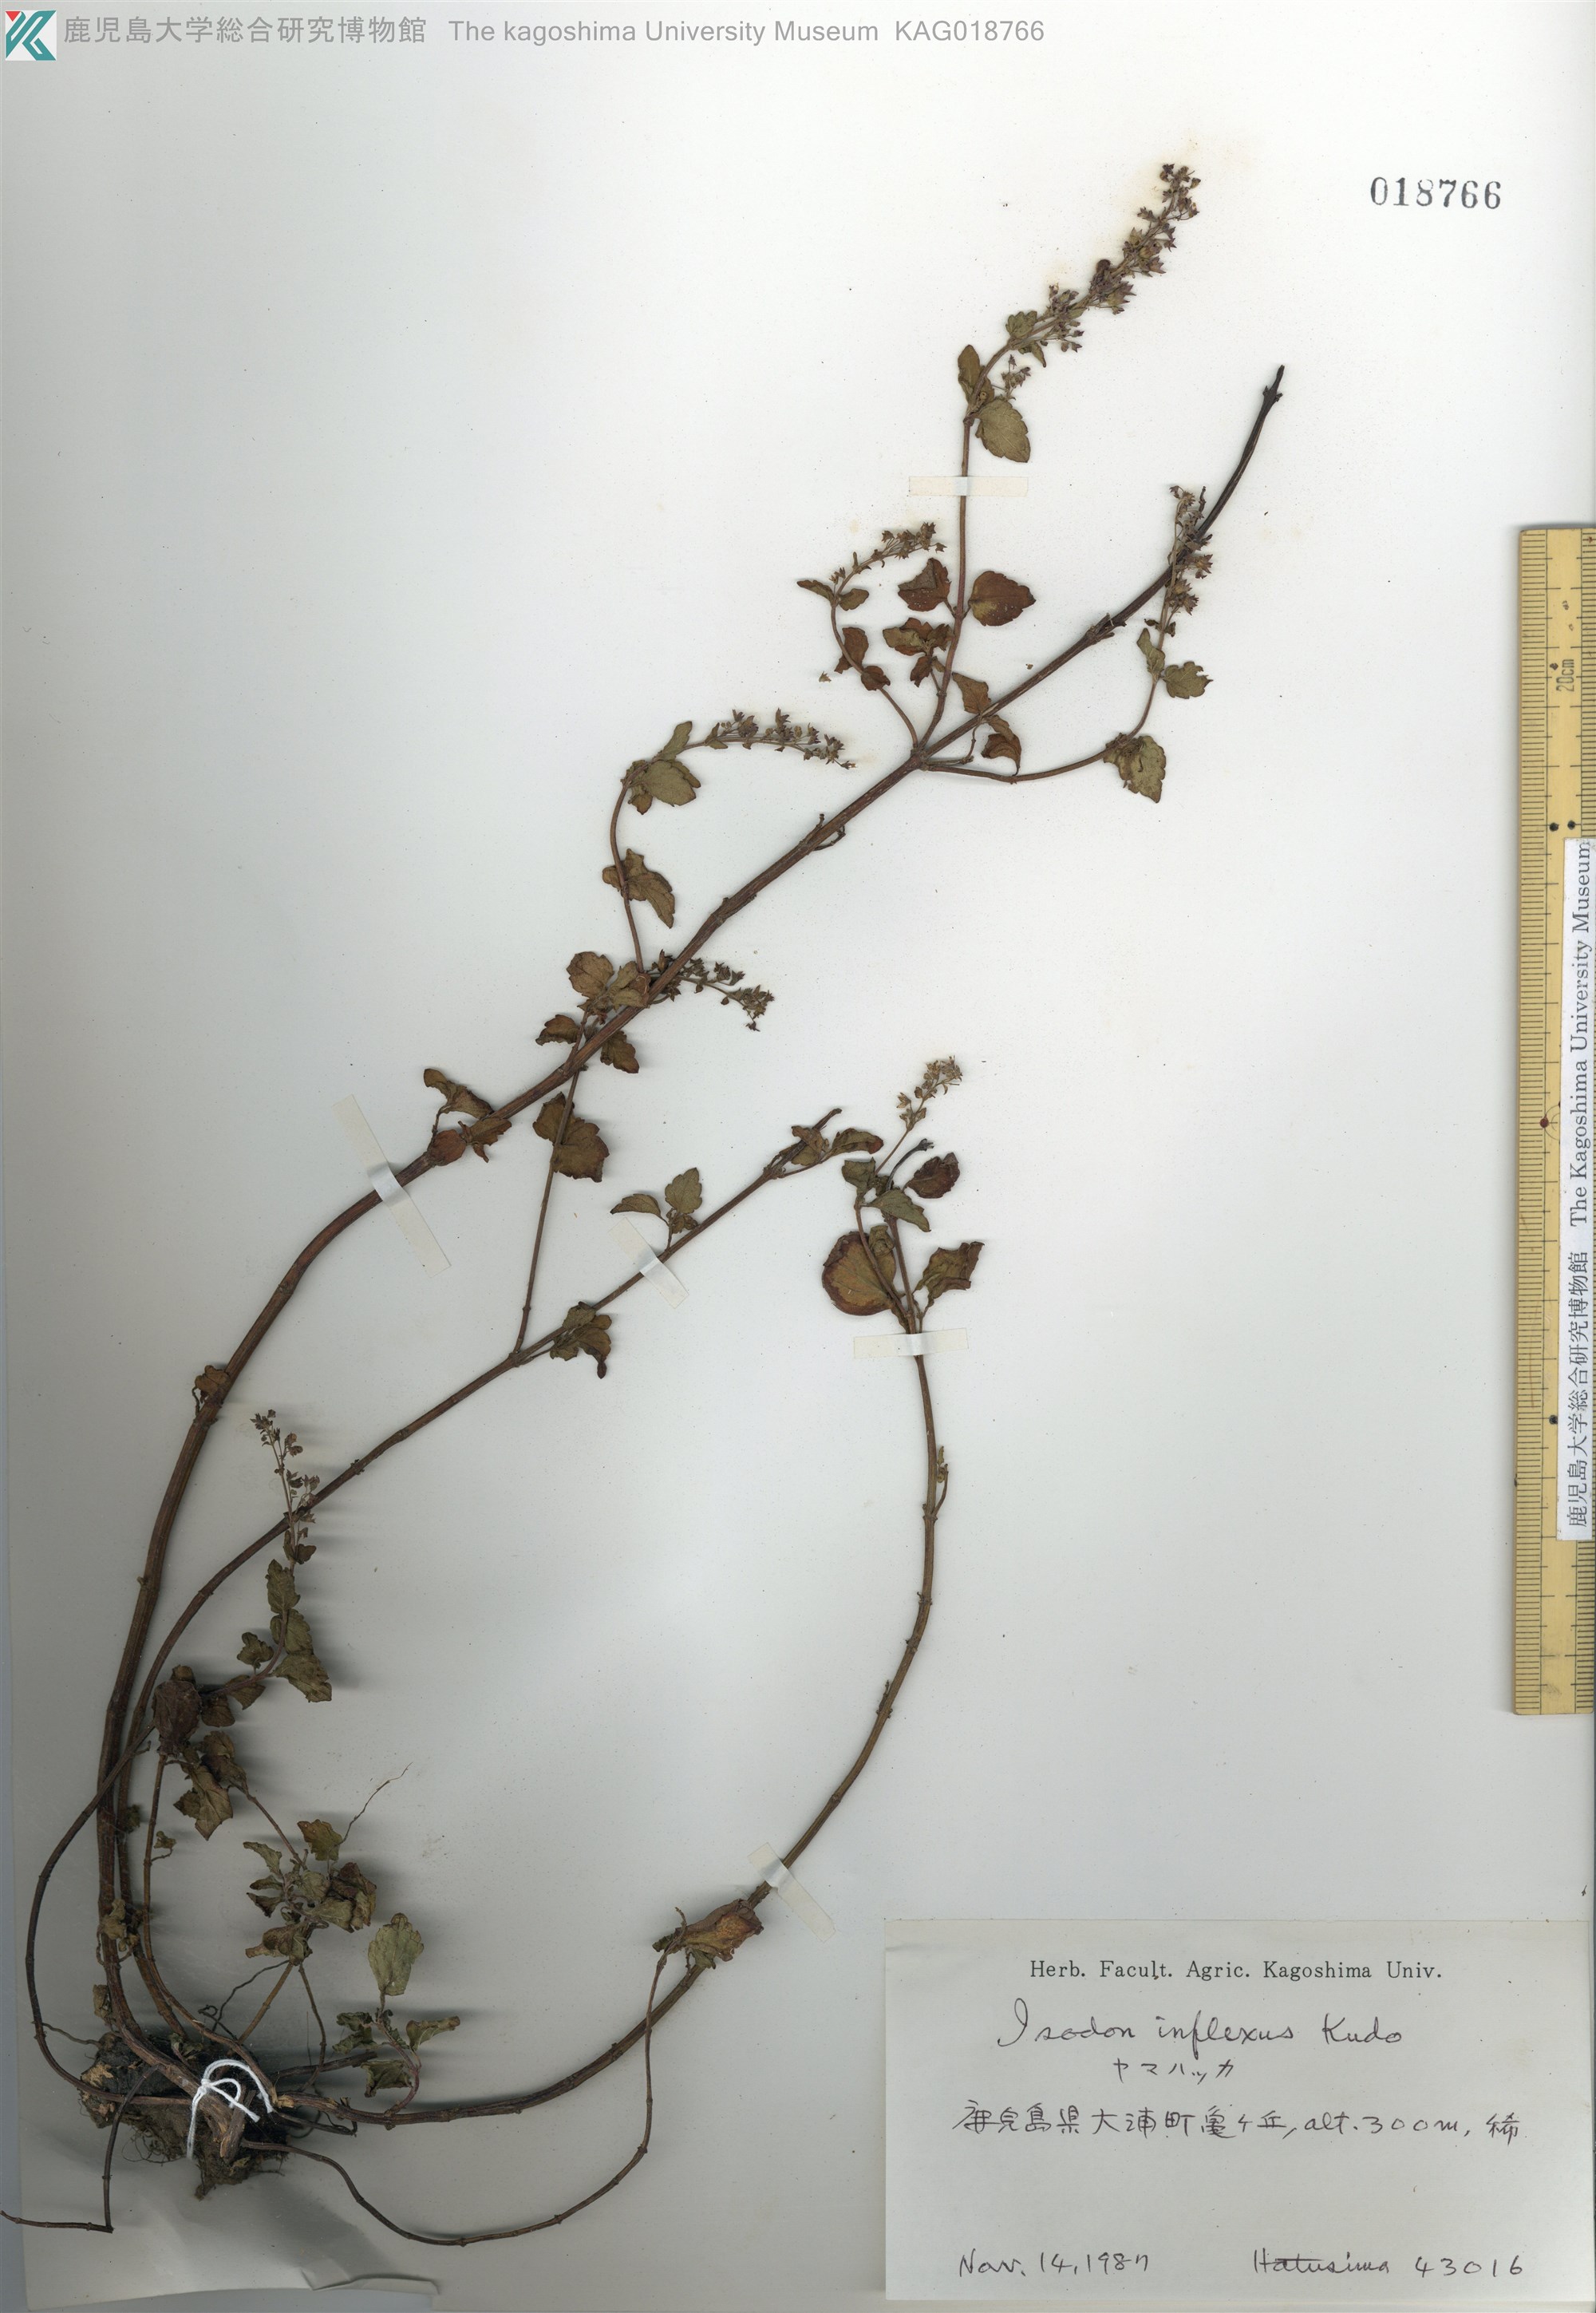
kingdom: Plantae
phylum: Tracheophyta
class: Magnoliopsida
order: Lamiales
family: Lamiaceae
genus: Isodon
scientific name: Isodon inflexus
